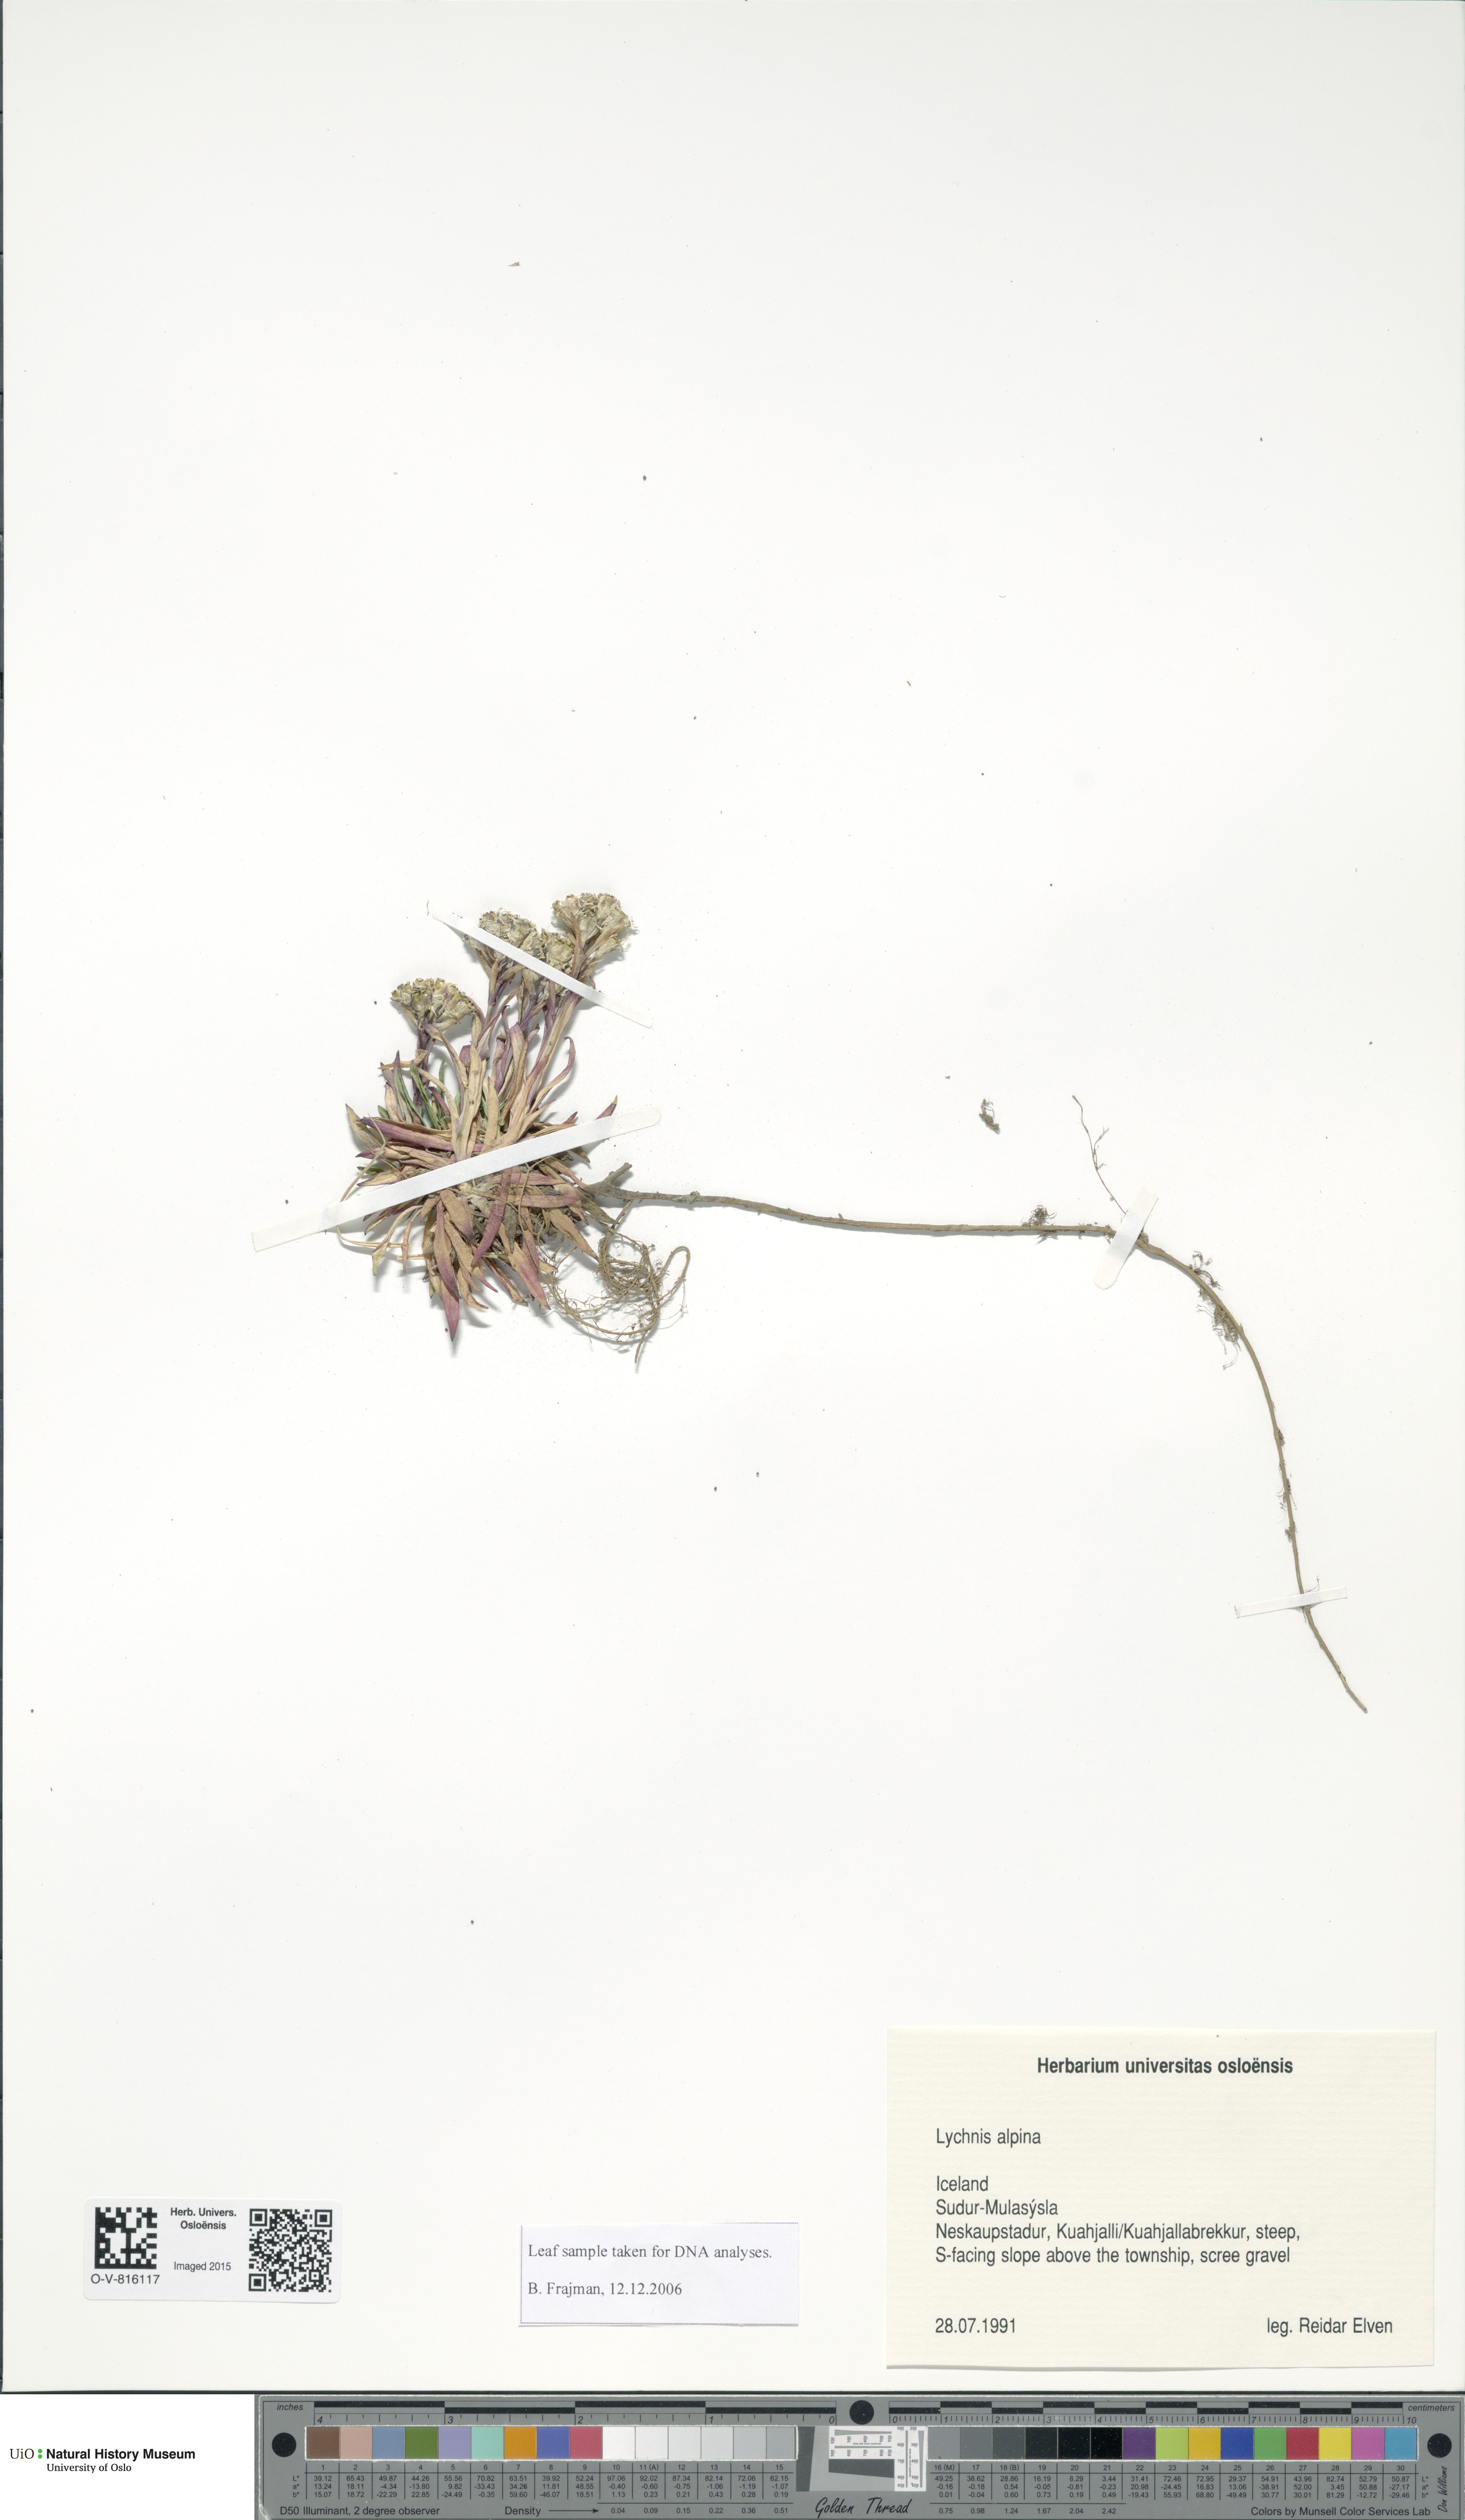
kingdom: Plantae
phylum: Tracheophyta
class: Magnoliopsida
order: Caryophyllales
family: Caryophyllaceae
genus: Viscaria
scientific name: Viscaria alpina
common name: Alpine campion
